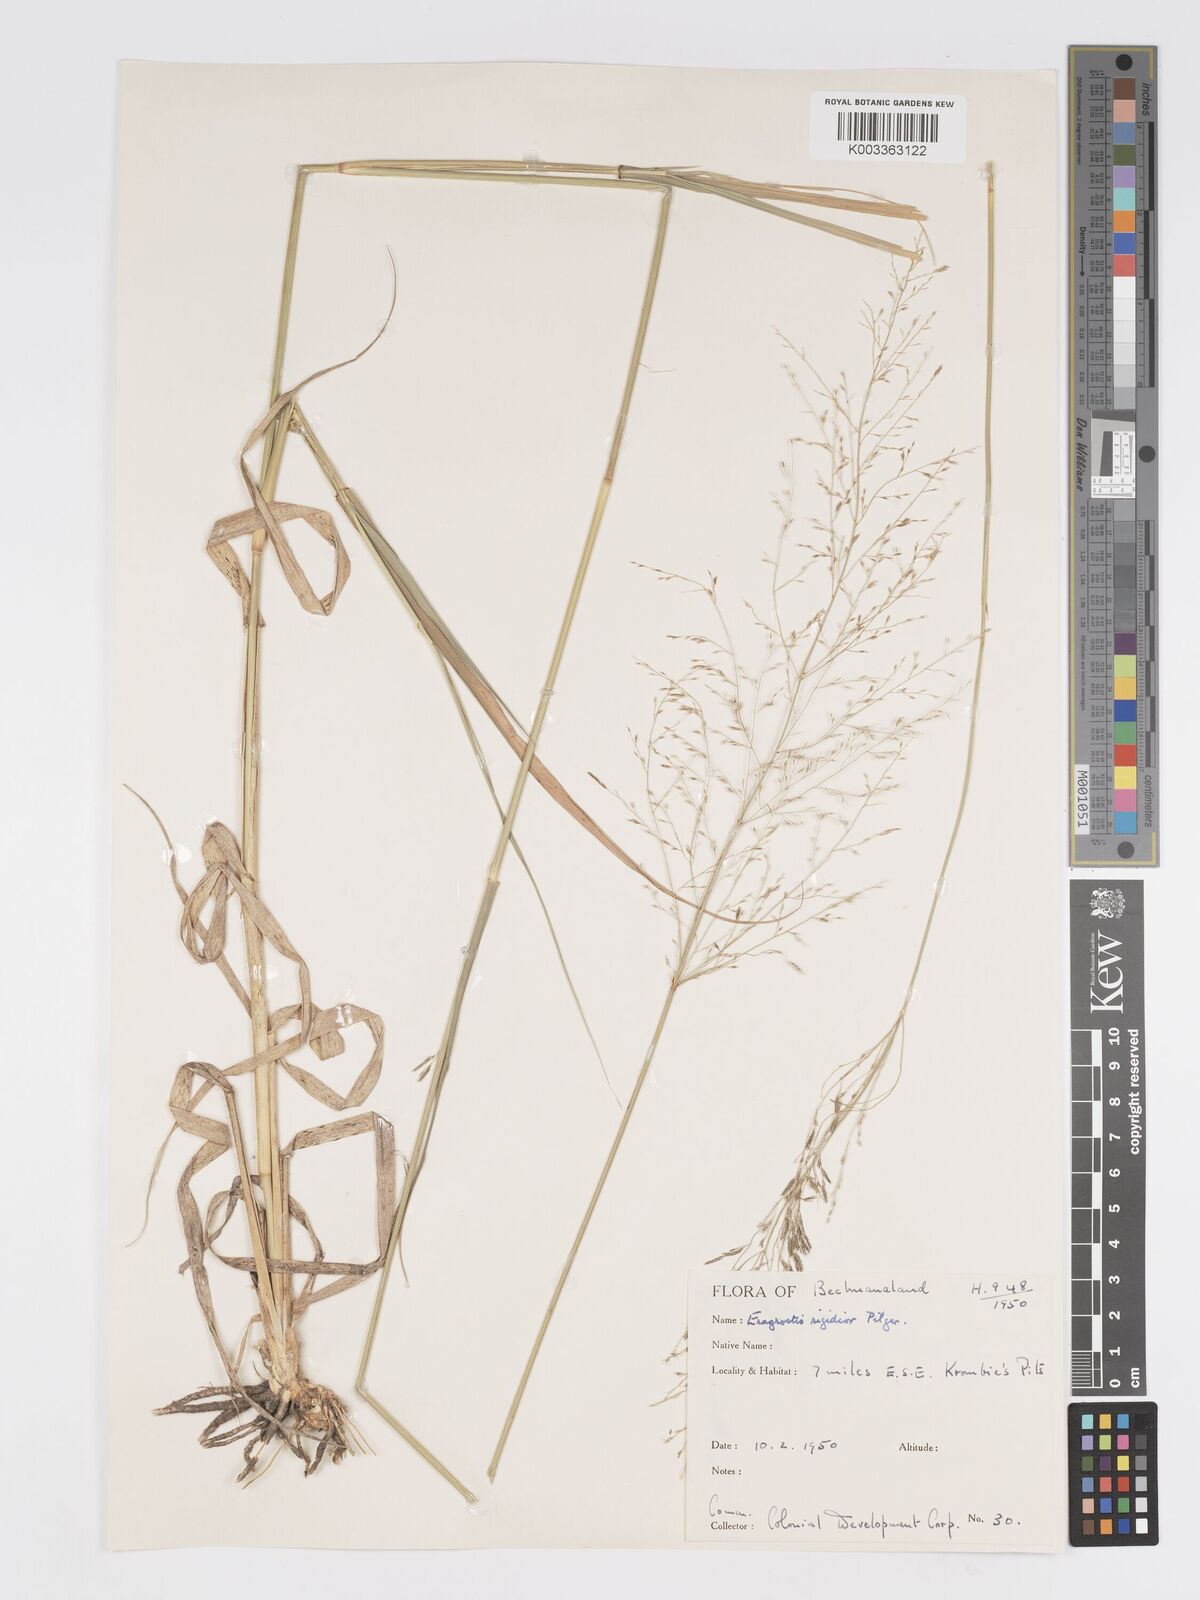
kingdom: Plantae
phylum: Tracheophyta
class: Liliopsida
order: Poales
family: Poaceae
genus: Eragrostis
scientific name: Eragrostis cylindriflora
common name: Cylinderflower lovegrass
